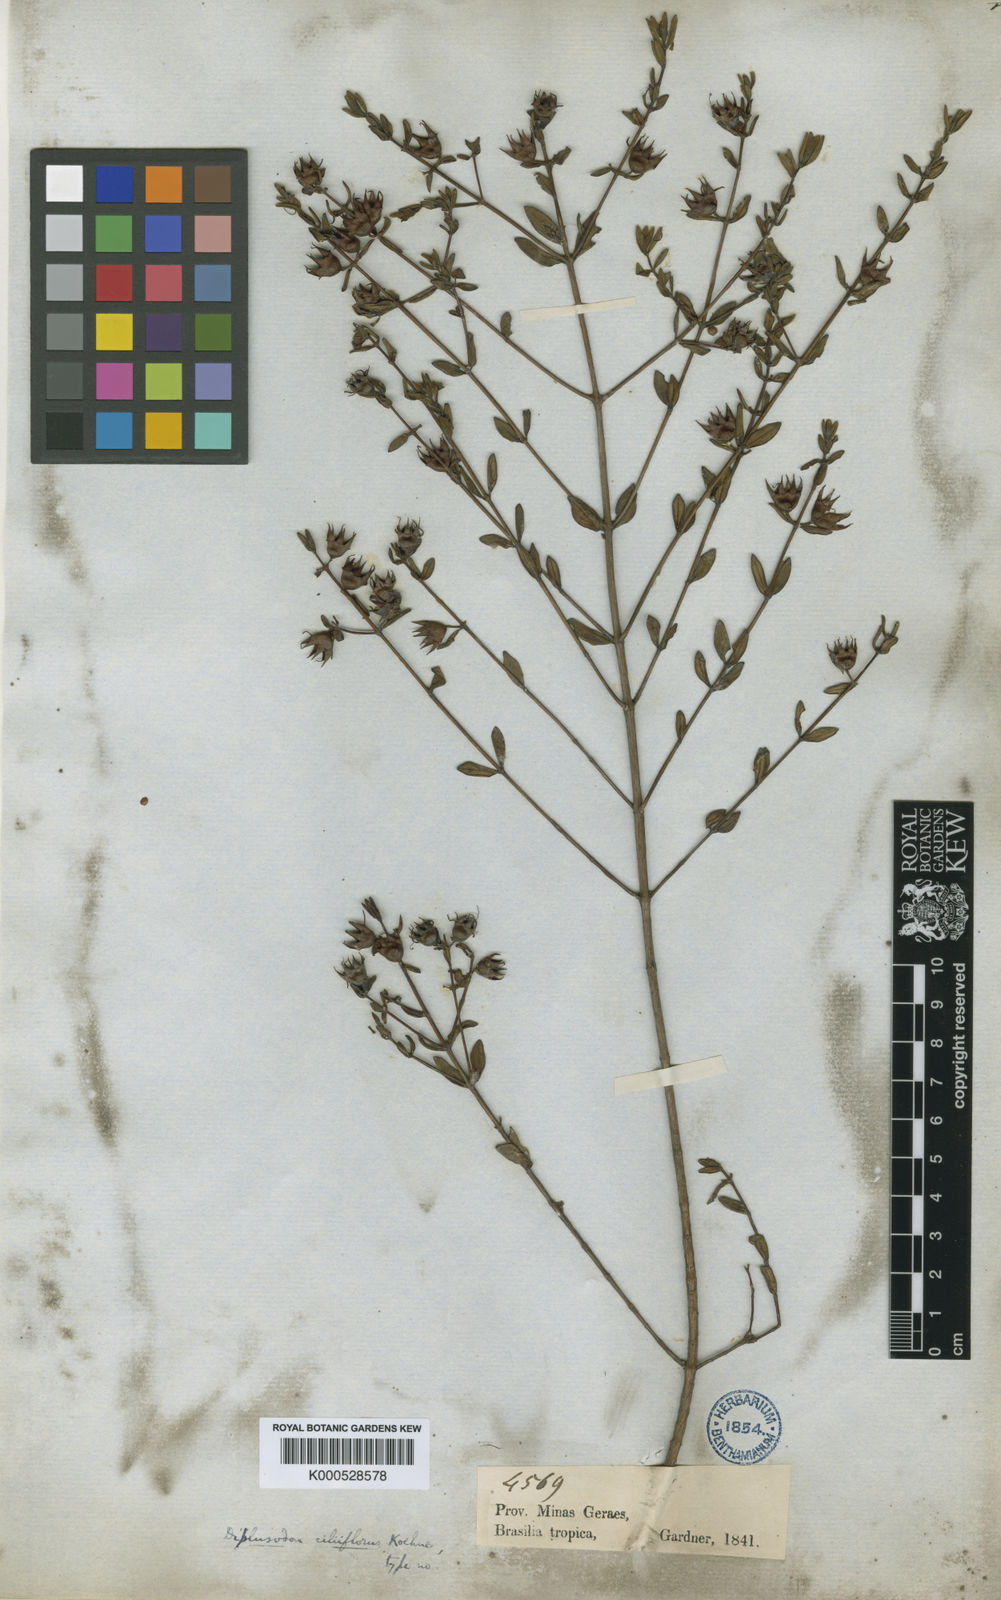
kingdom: Plantae
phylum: Tracheophyta
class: Magnoliopsida
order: Myrtales
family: Lythraceae
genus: Diplusodon
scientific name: Diplusodon ciliiflorus
